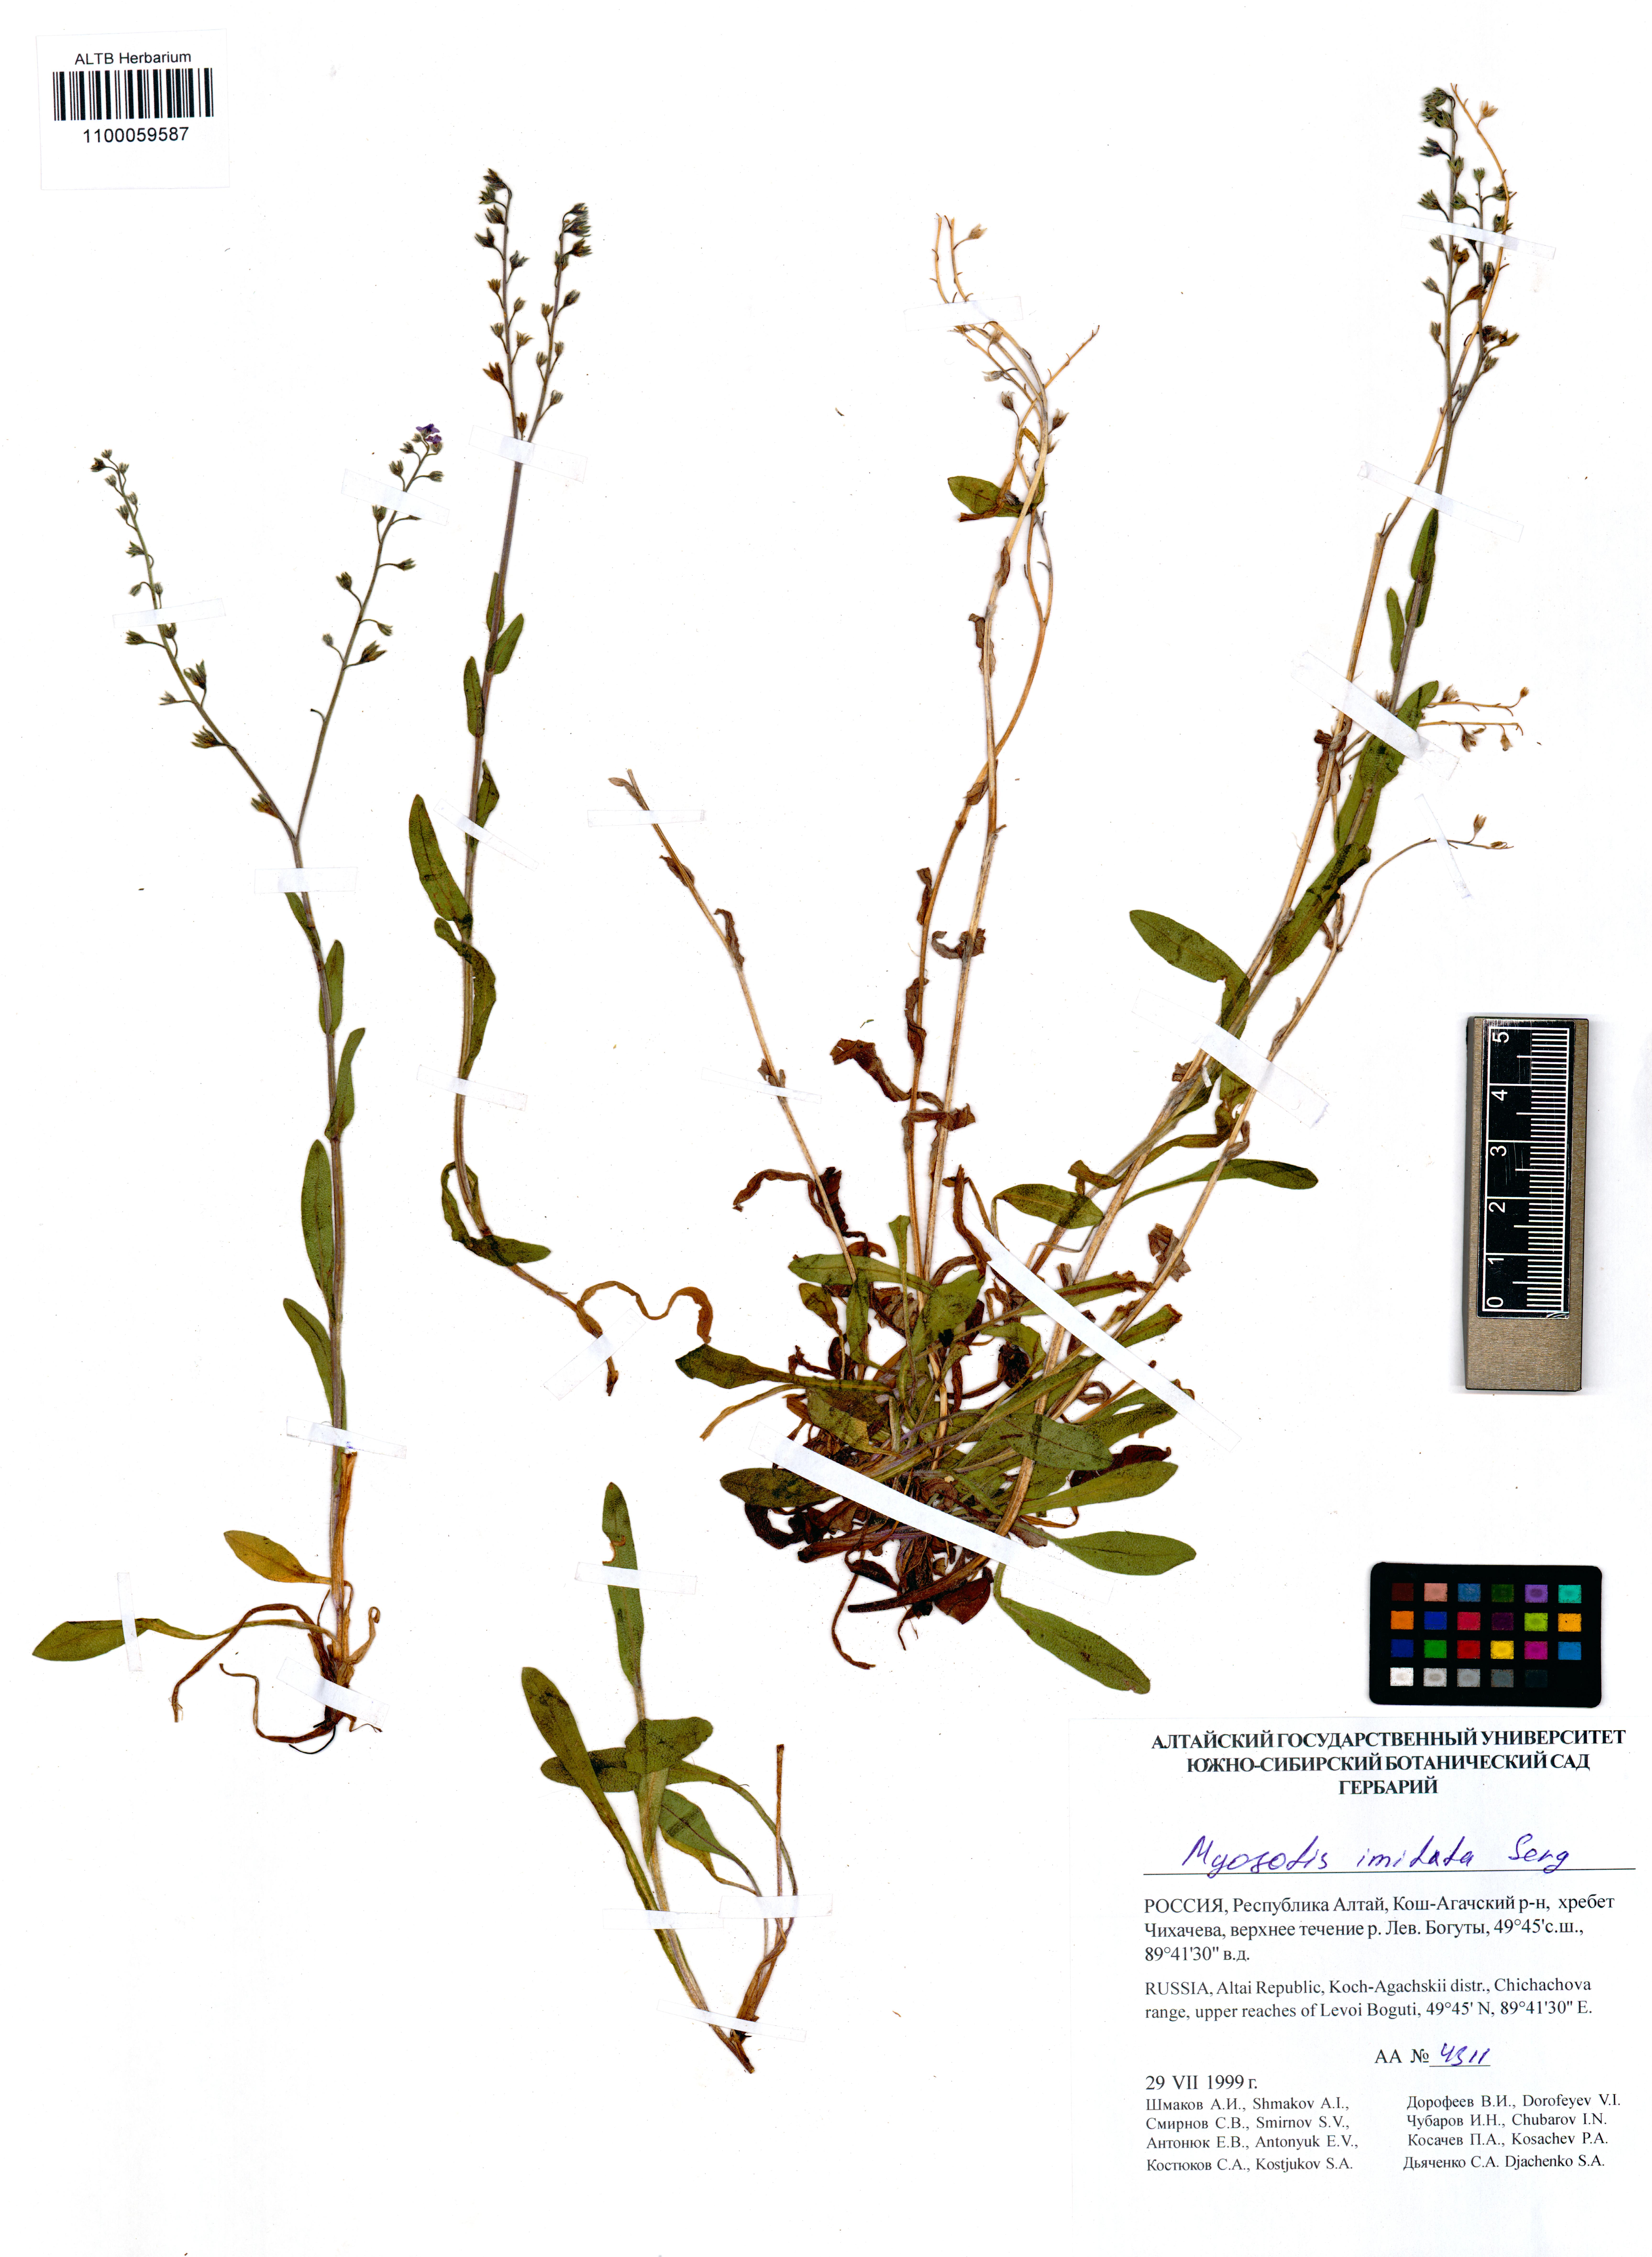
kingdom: Plantae
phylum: Tracheophyta
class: Magnoliopsida
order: Boraginales
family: Boraginaceae
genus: Myosotis
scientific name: Myosotis imitata
